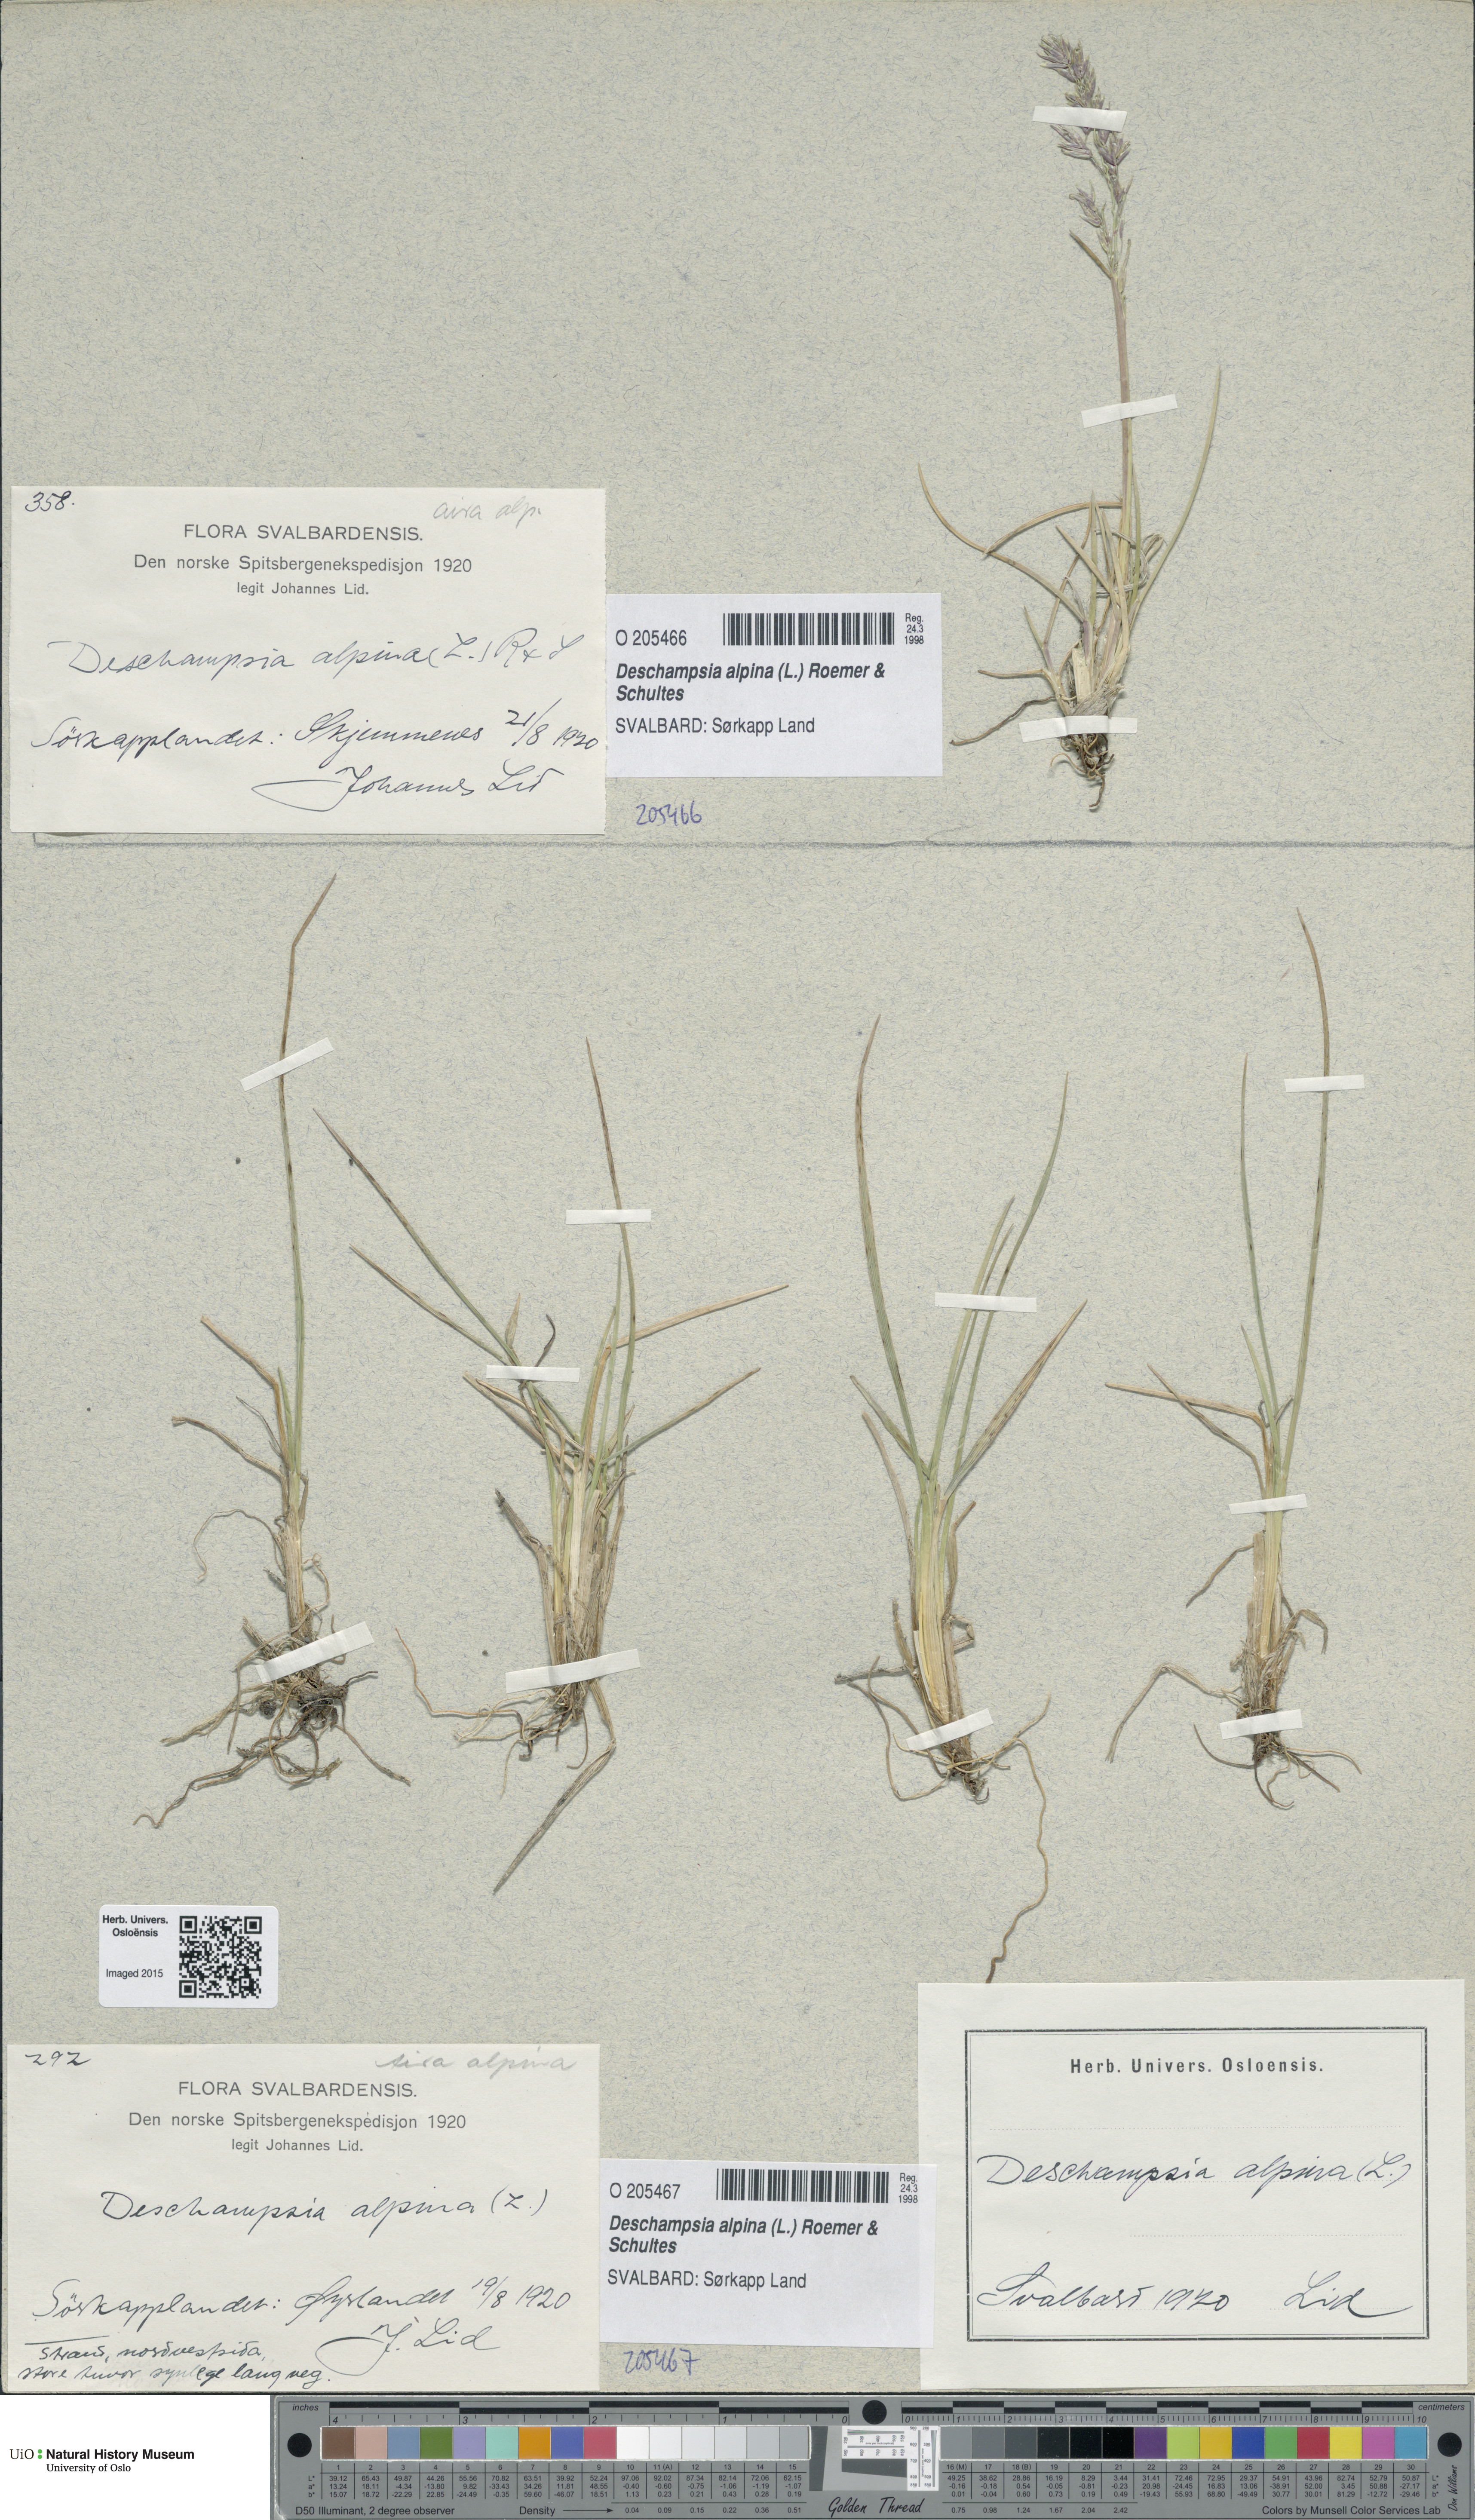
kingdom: Plantae
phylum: Tracheophyta
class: Liliopsida
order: Poales
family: Poaceae
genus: Deschampsia
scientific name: Deschampsia cespitosa
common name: Tufted hair-grass
